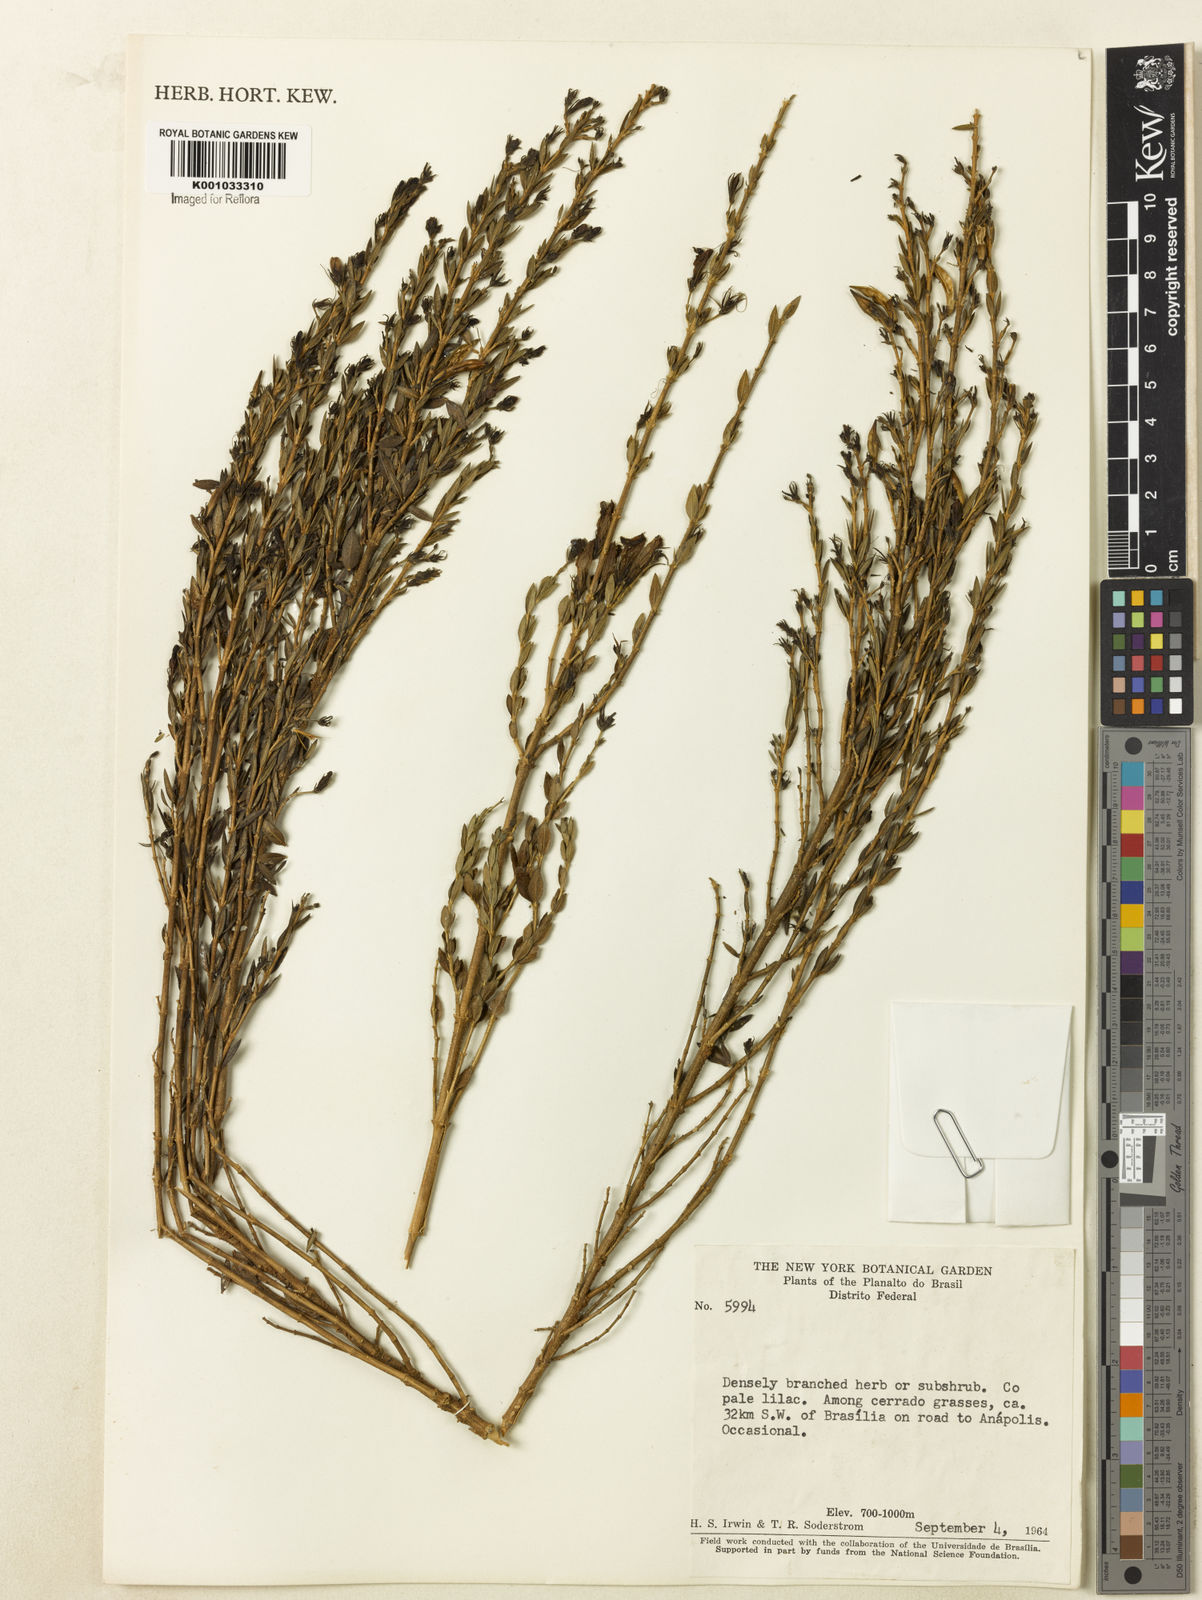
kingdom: Plantae
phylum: Tracheophyta
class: Magnoliopsida
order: Lamiales
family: Acanthaceae
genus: Justicia
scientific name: Justicia
